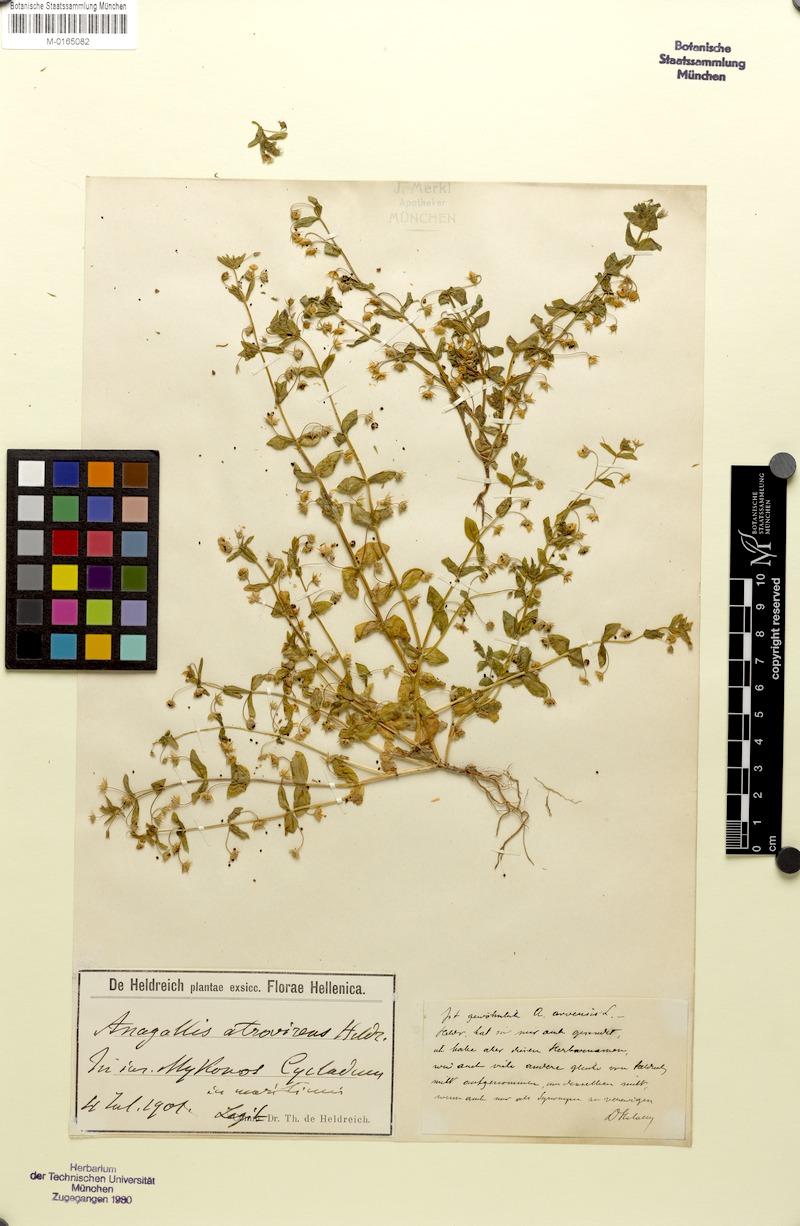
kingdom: Plantae
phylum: Tracheophyta
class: Magnoliopsida
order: Ericales
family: Primulaceae
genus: Lysimachia
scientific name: Lysimachia arvensis
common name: Scarlet pimpernel
